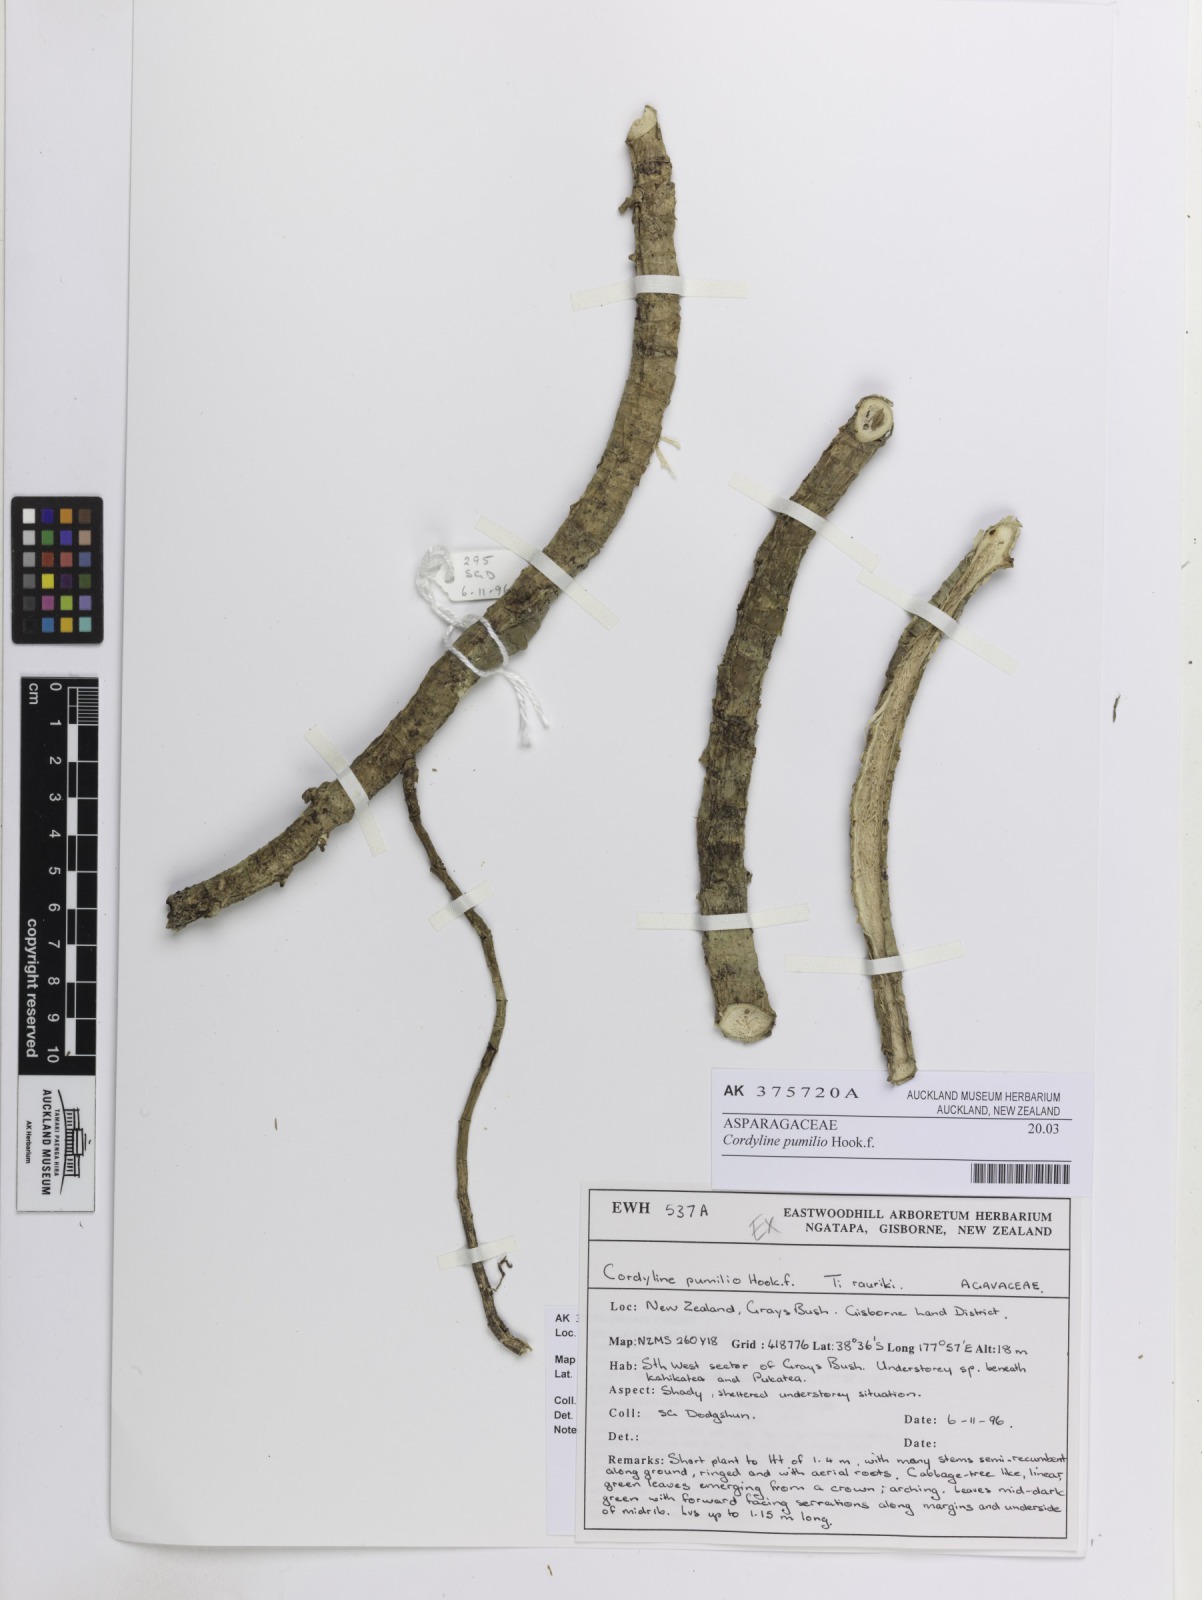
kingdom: Plantae
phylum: Tracheophyta
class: Liliopsida
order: Asparagales
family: Asparagaceae
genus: Cordyline
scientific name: Cordyline pumilio
